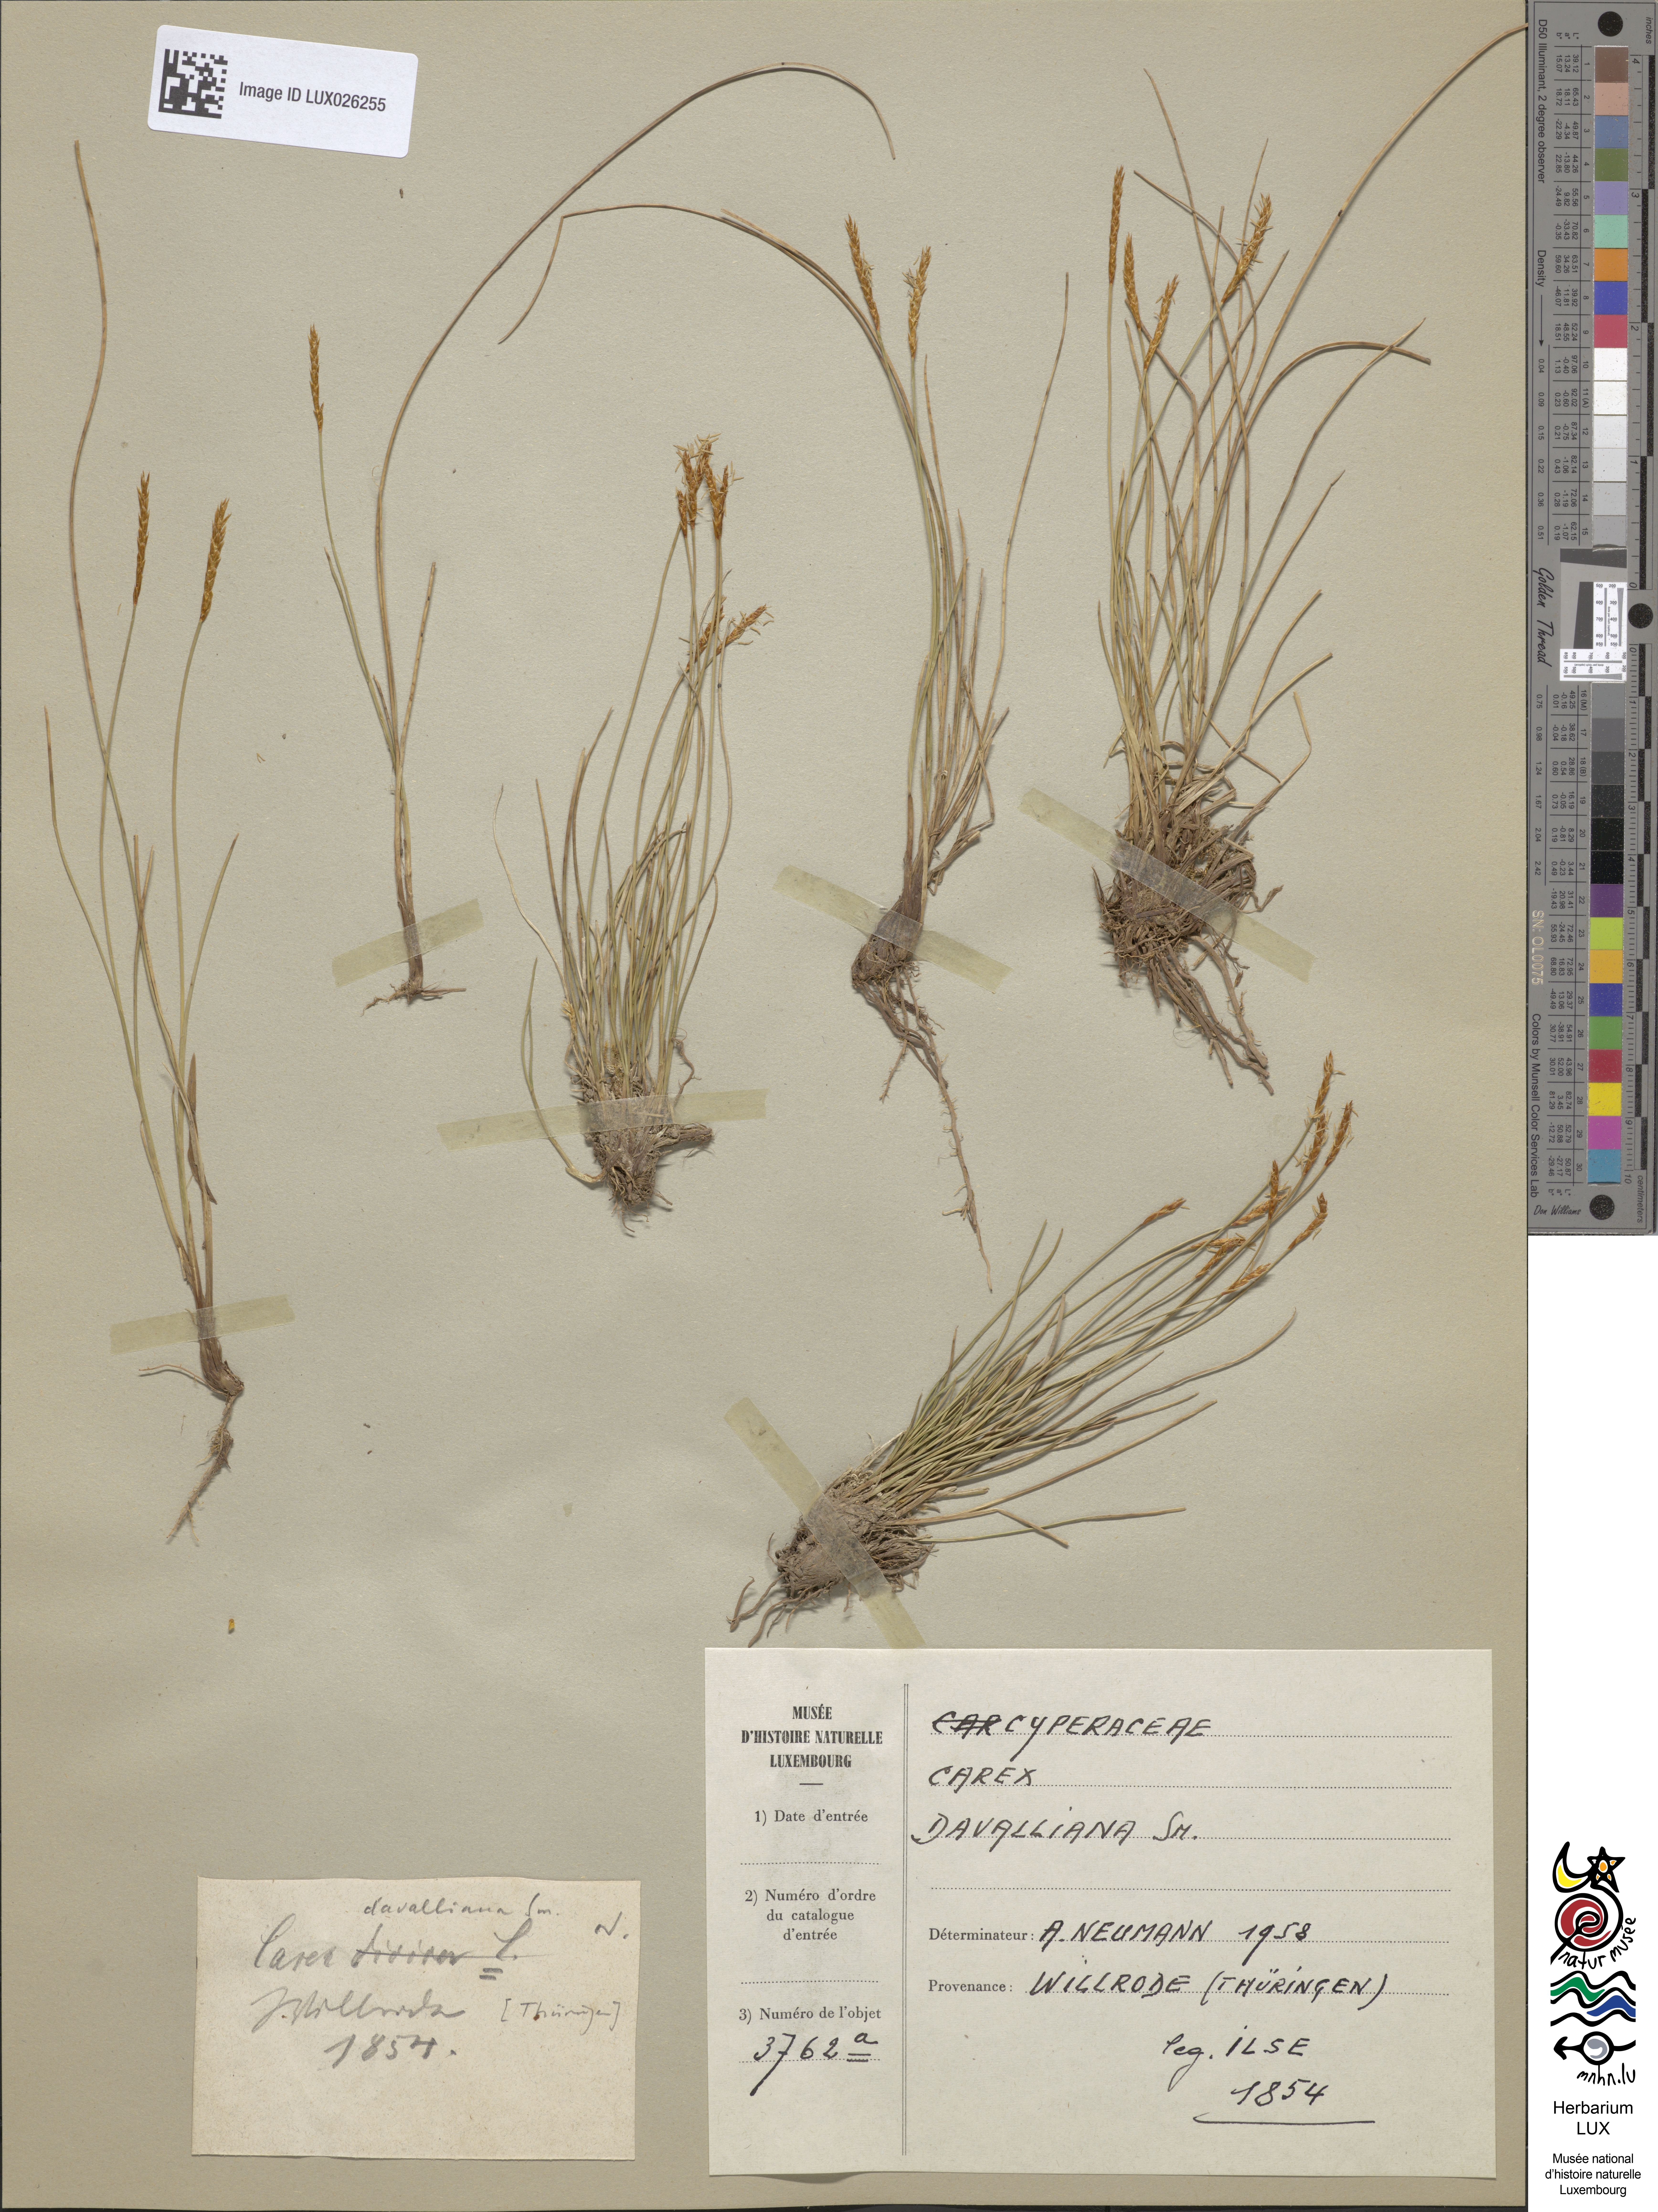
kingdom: Plantae
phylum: Tracheophyta
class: Liliopsida
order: Poales
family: Cyperaceae
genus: Carex
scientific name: Carex davalliana
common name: Davall's sedge
